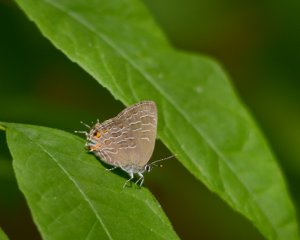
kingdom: Animalia
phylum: Arthropoda
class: Insecta
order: Lepidoptera
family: Lycaenidae
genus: Satyrium
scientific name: Satyrium liparops
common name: Striped Hairstreak
